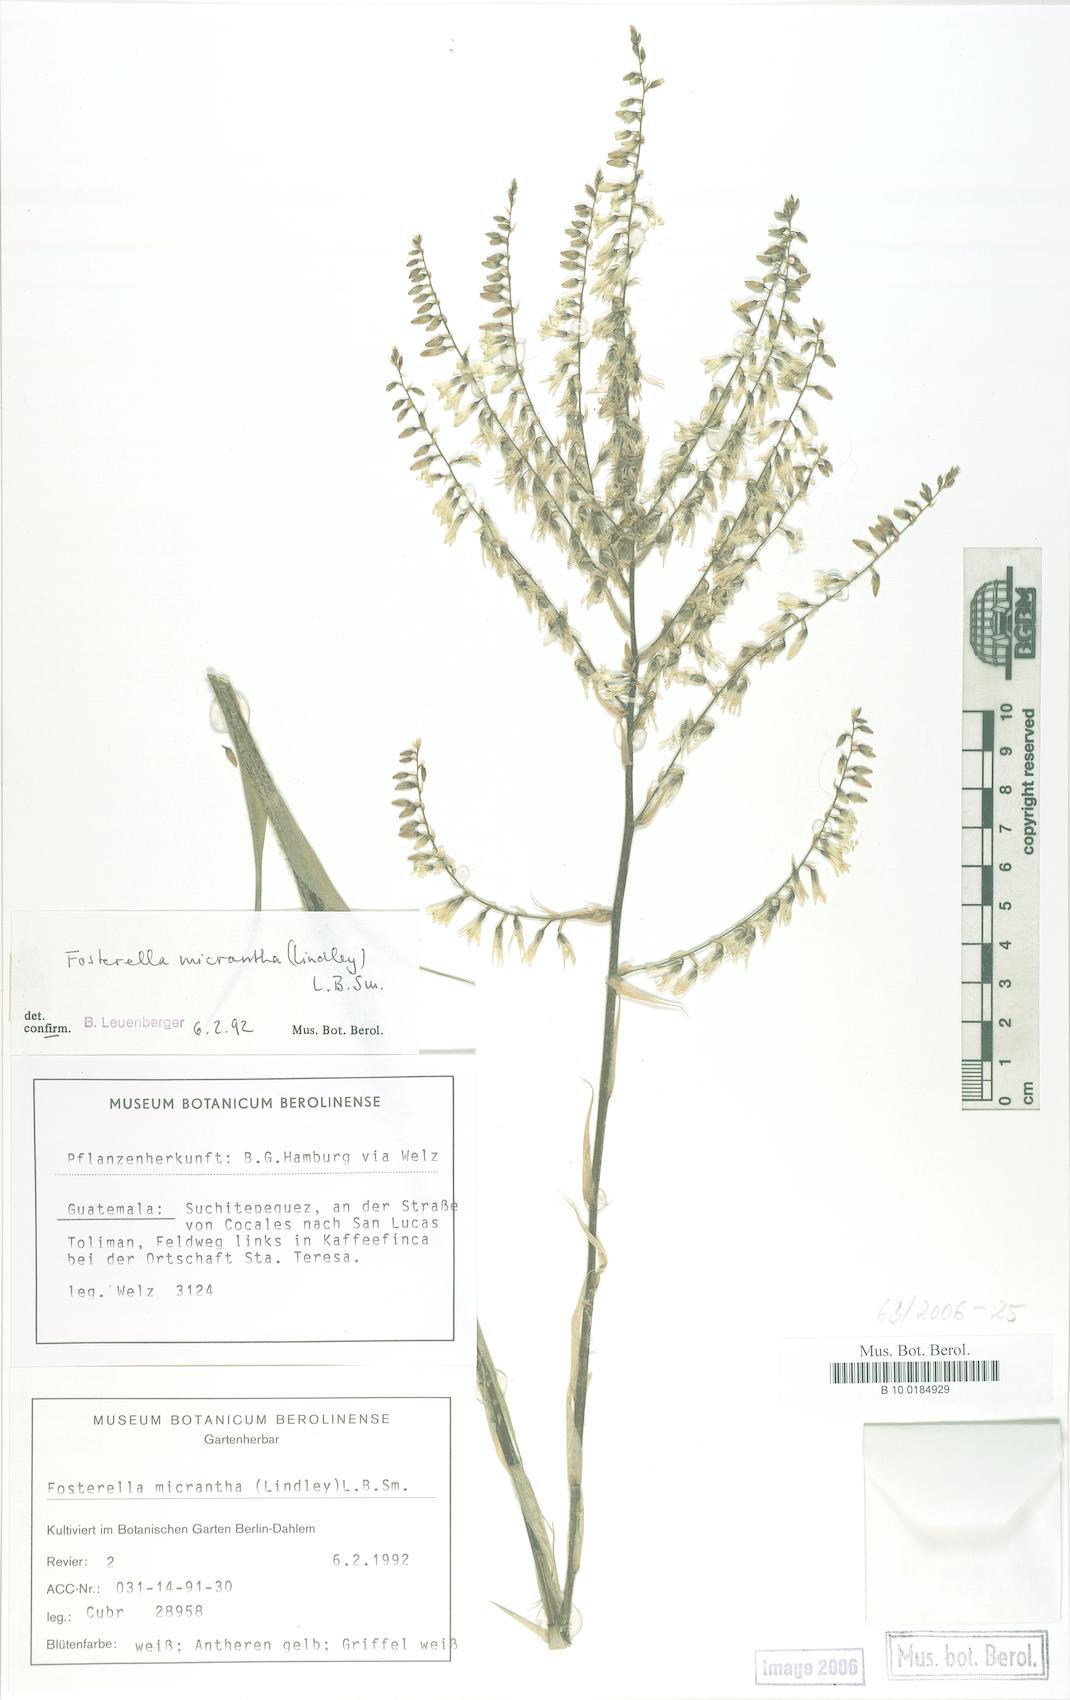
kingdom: Plantae
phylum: Tracheophyta
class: Liliopsida
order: Poales
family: Bromeliaceae
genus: Fosterella
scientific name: Fosterella micrantha
